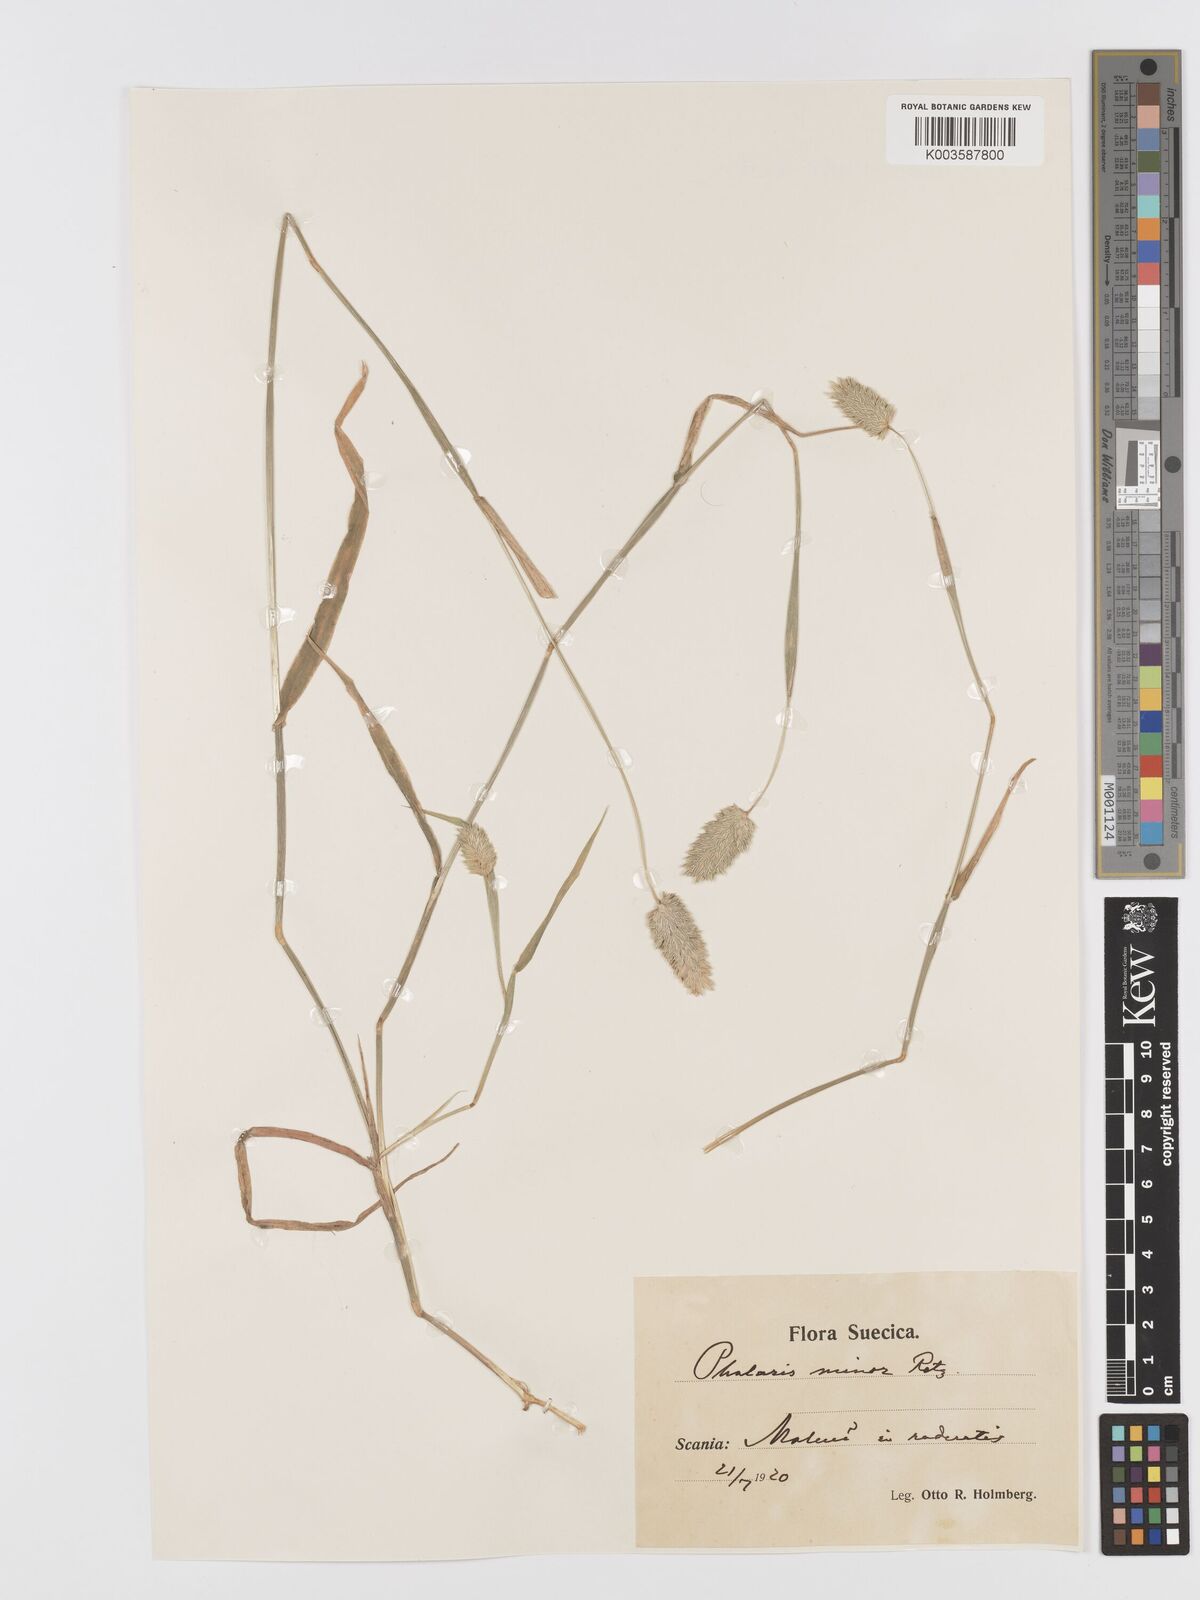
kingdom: Plantae
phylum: Tracheophyta
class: Liliopsida
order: Poales
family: Poaceae
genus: Phalaris
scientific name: Phalaris minor
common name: Littleseed canarygrass
